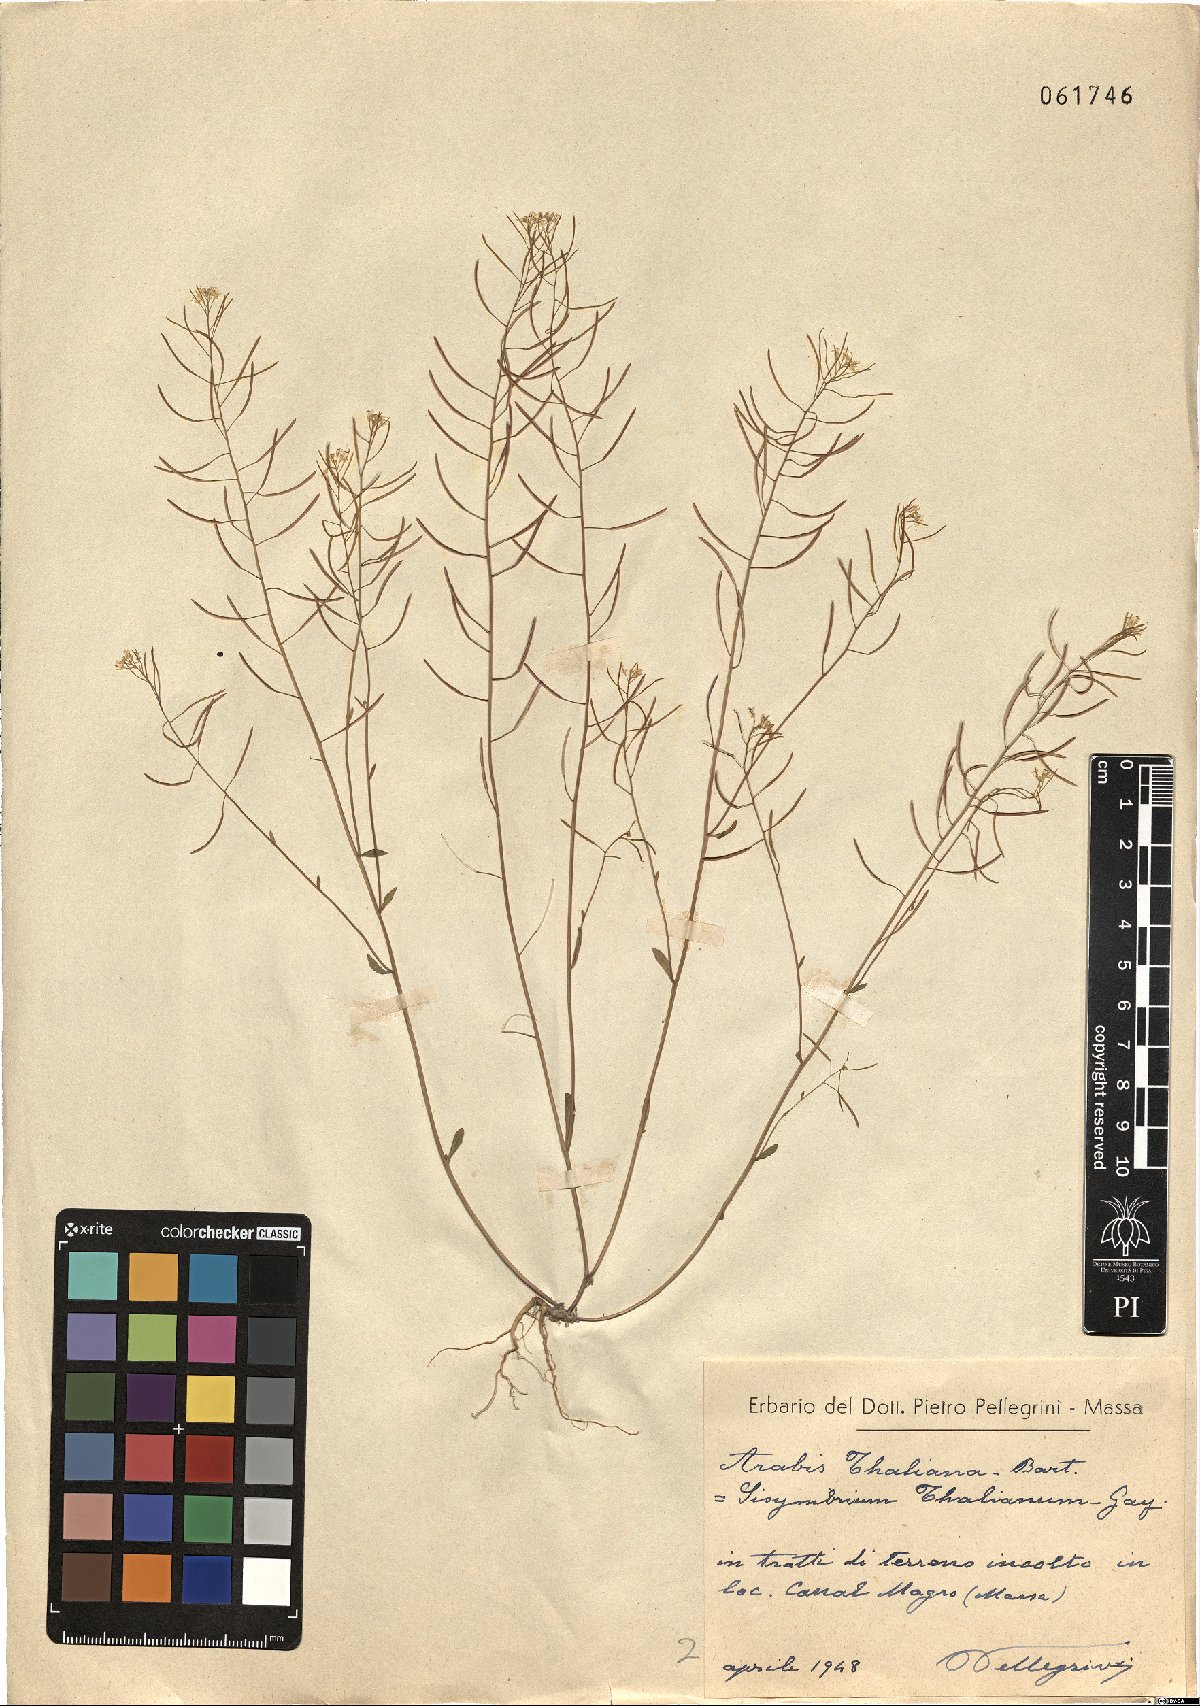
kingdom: Plantae
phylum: Tracheophyta
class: Magnoliopsida
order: Brassicales
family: Brassicaceae
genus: Arabidopsis
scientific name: Arabidopsis thaliana
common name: Thale cress
